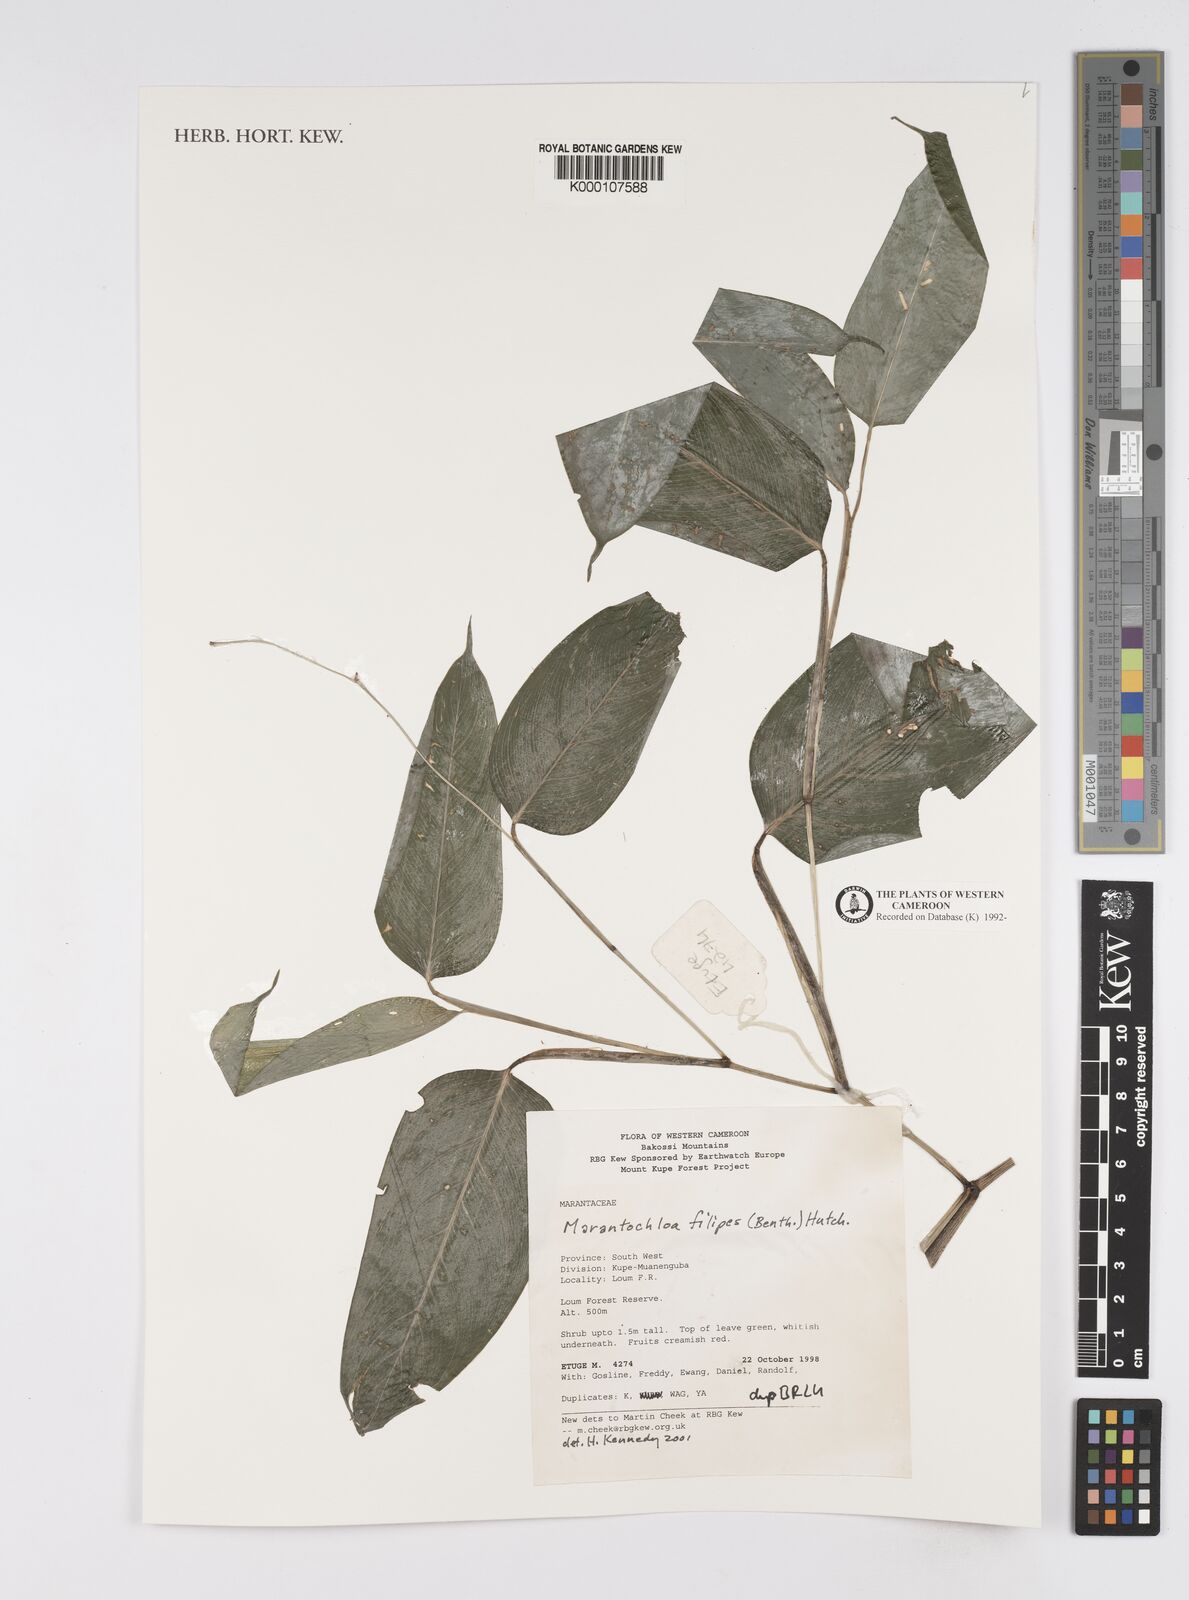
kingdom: Plantae
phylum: Tracheophyta
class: Liliopsida
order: Zingiberales
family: Marantaceae
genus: Marantochloa
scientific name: Marantochloa filipes
